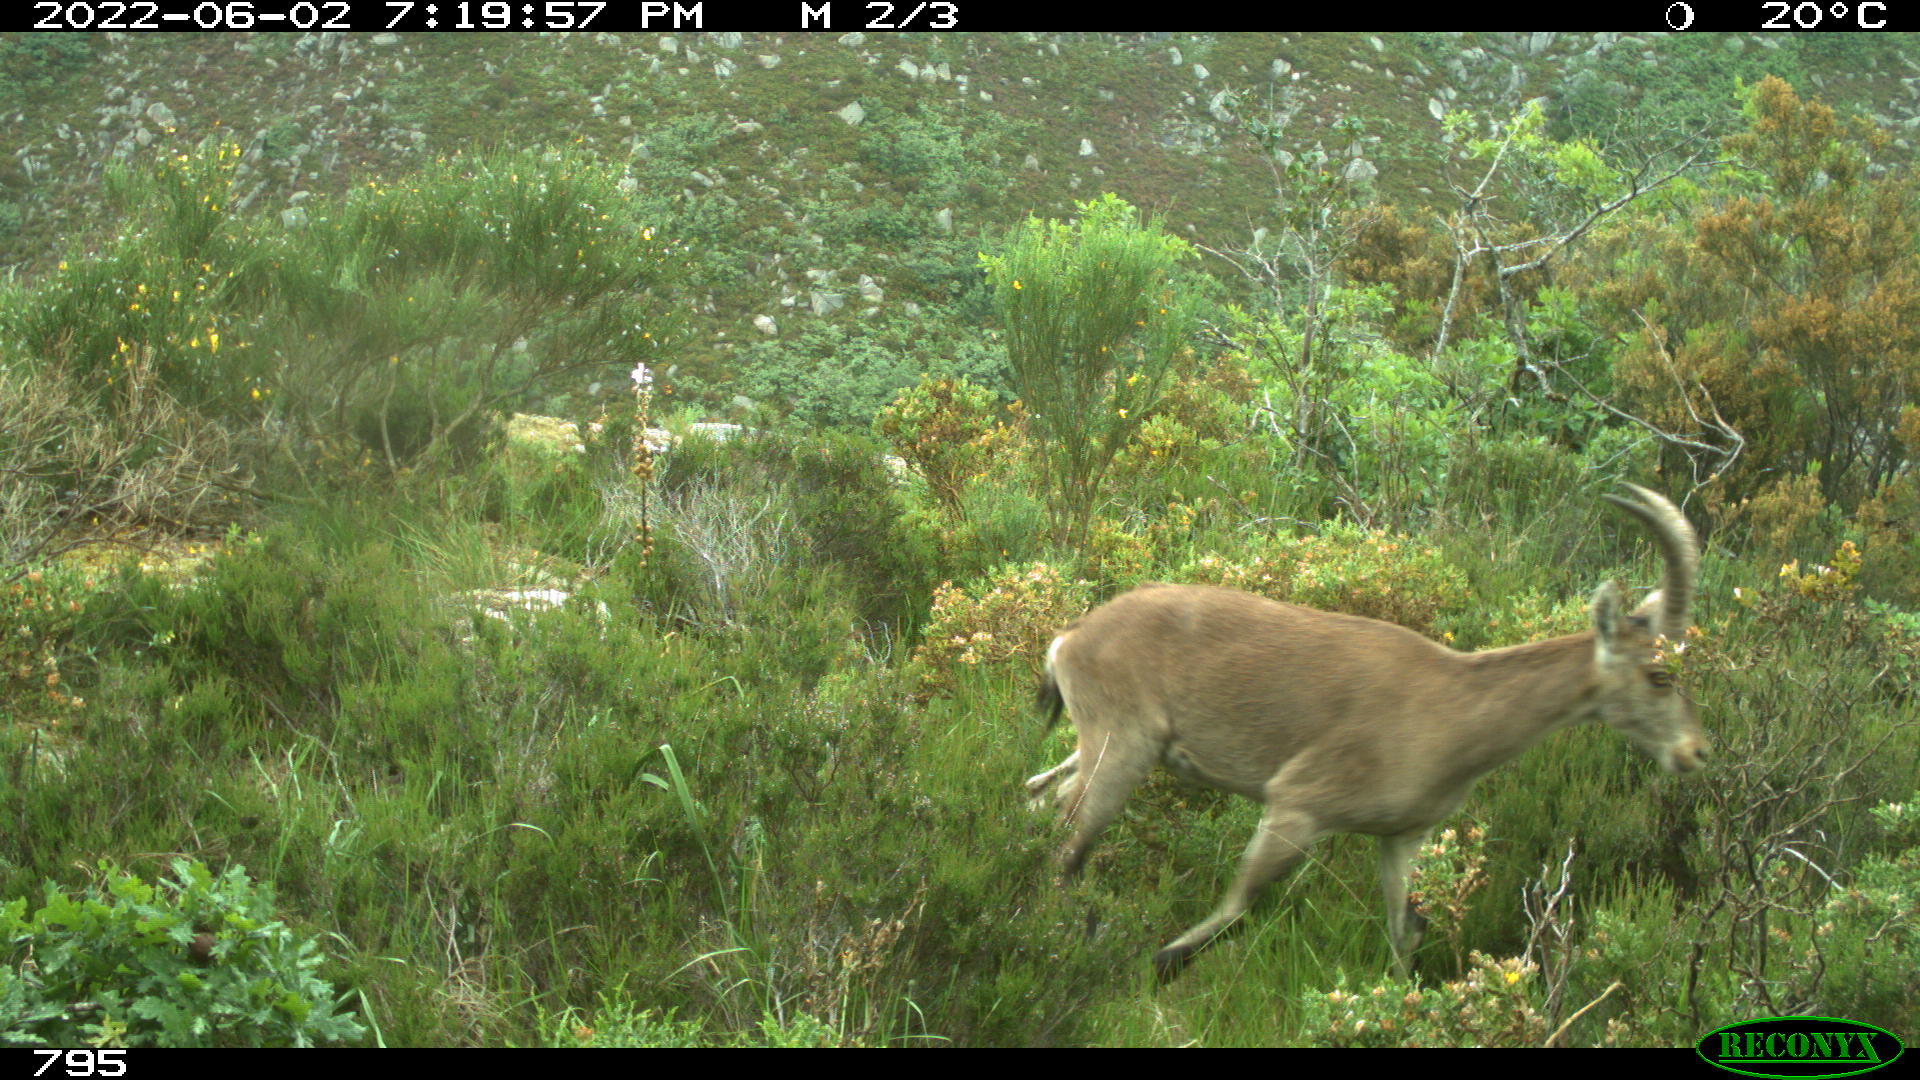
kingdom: Animalia
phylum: Chordata
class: Mammalia
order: Artiodactyla
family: Bovidae
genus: Capra
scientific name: Capra pyrenaica
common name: Spanish ibex
